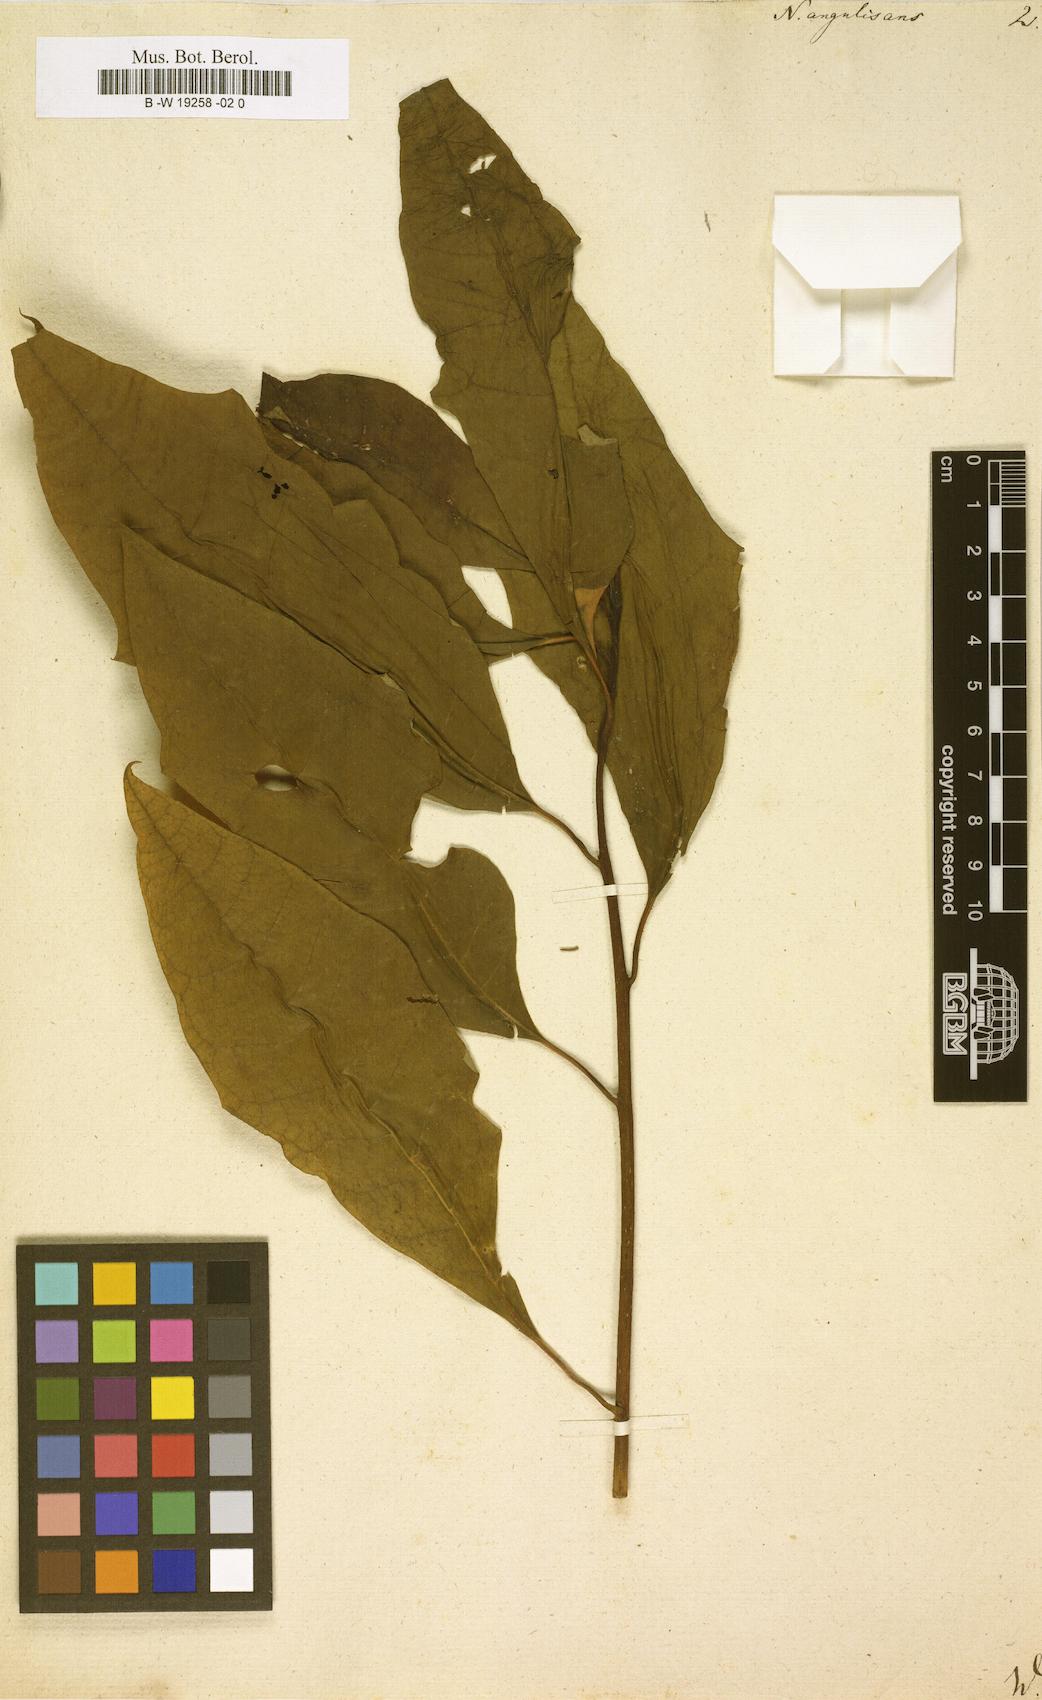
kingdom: Plantae
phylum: Tracheophyta
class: Magnoliopsida
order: Cornales
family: Nyssaceae
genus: Nyssa
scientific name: Nyssa aquatica
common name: Swamp tupelo
